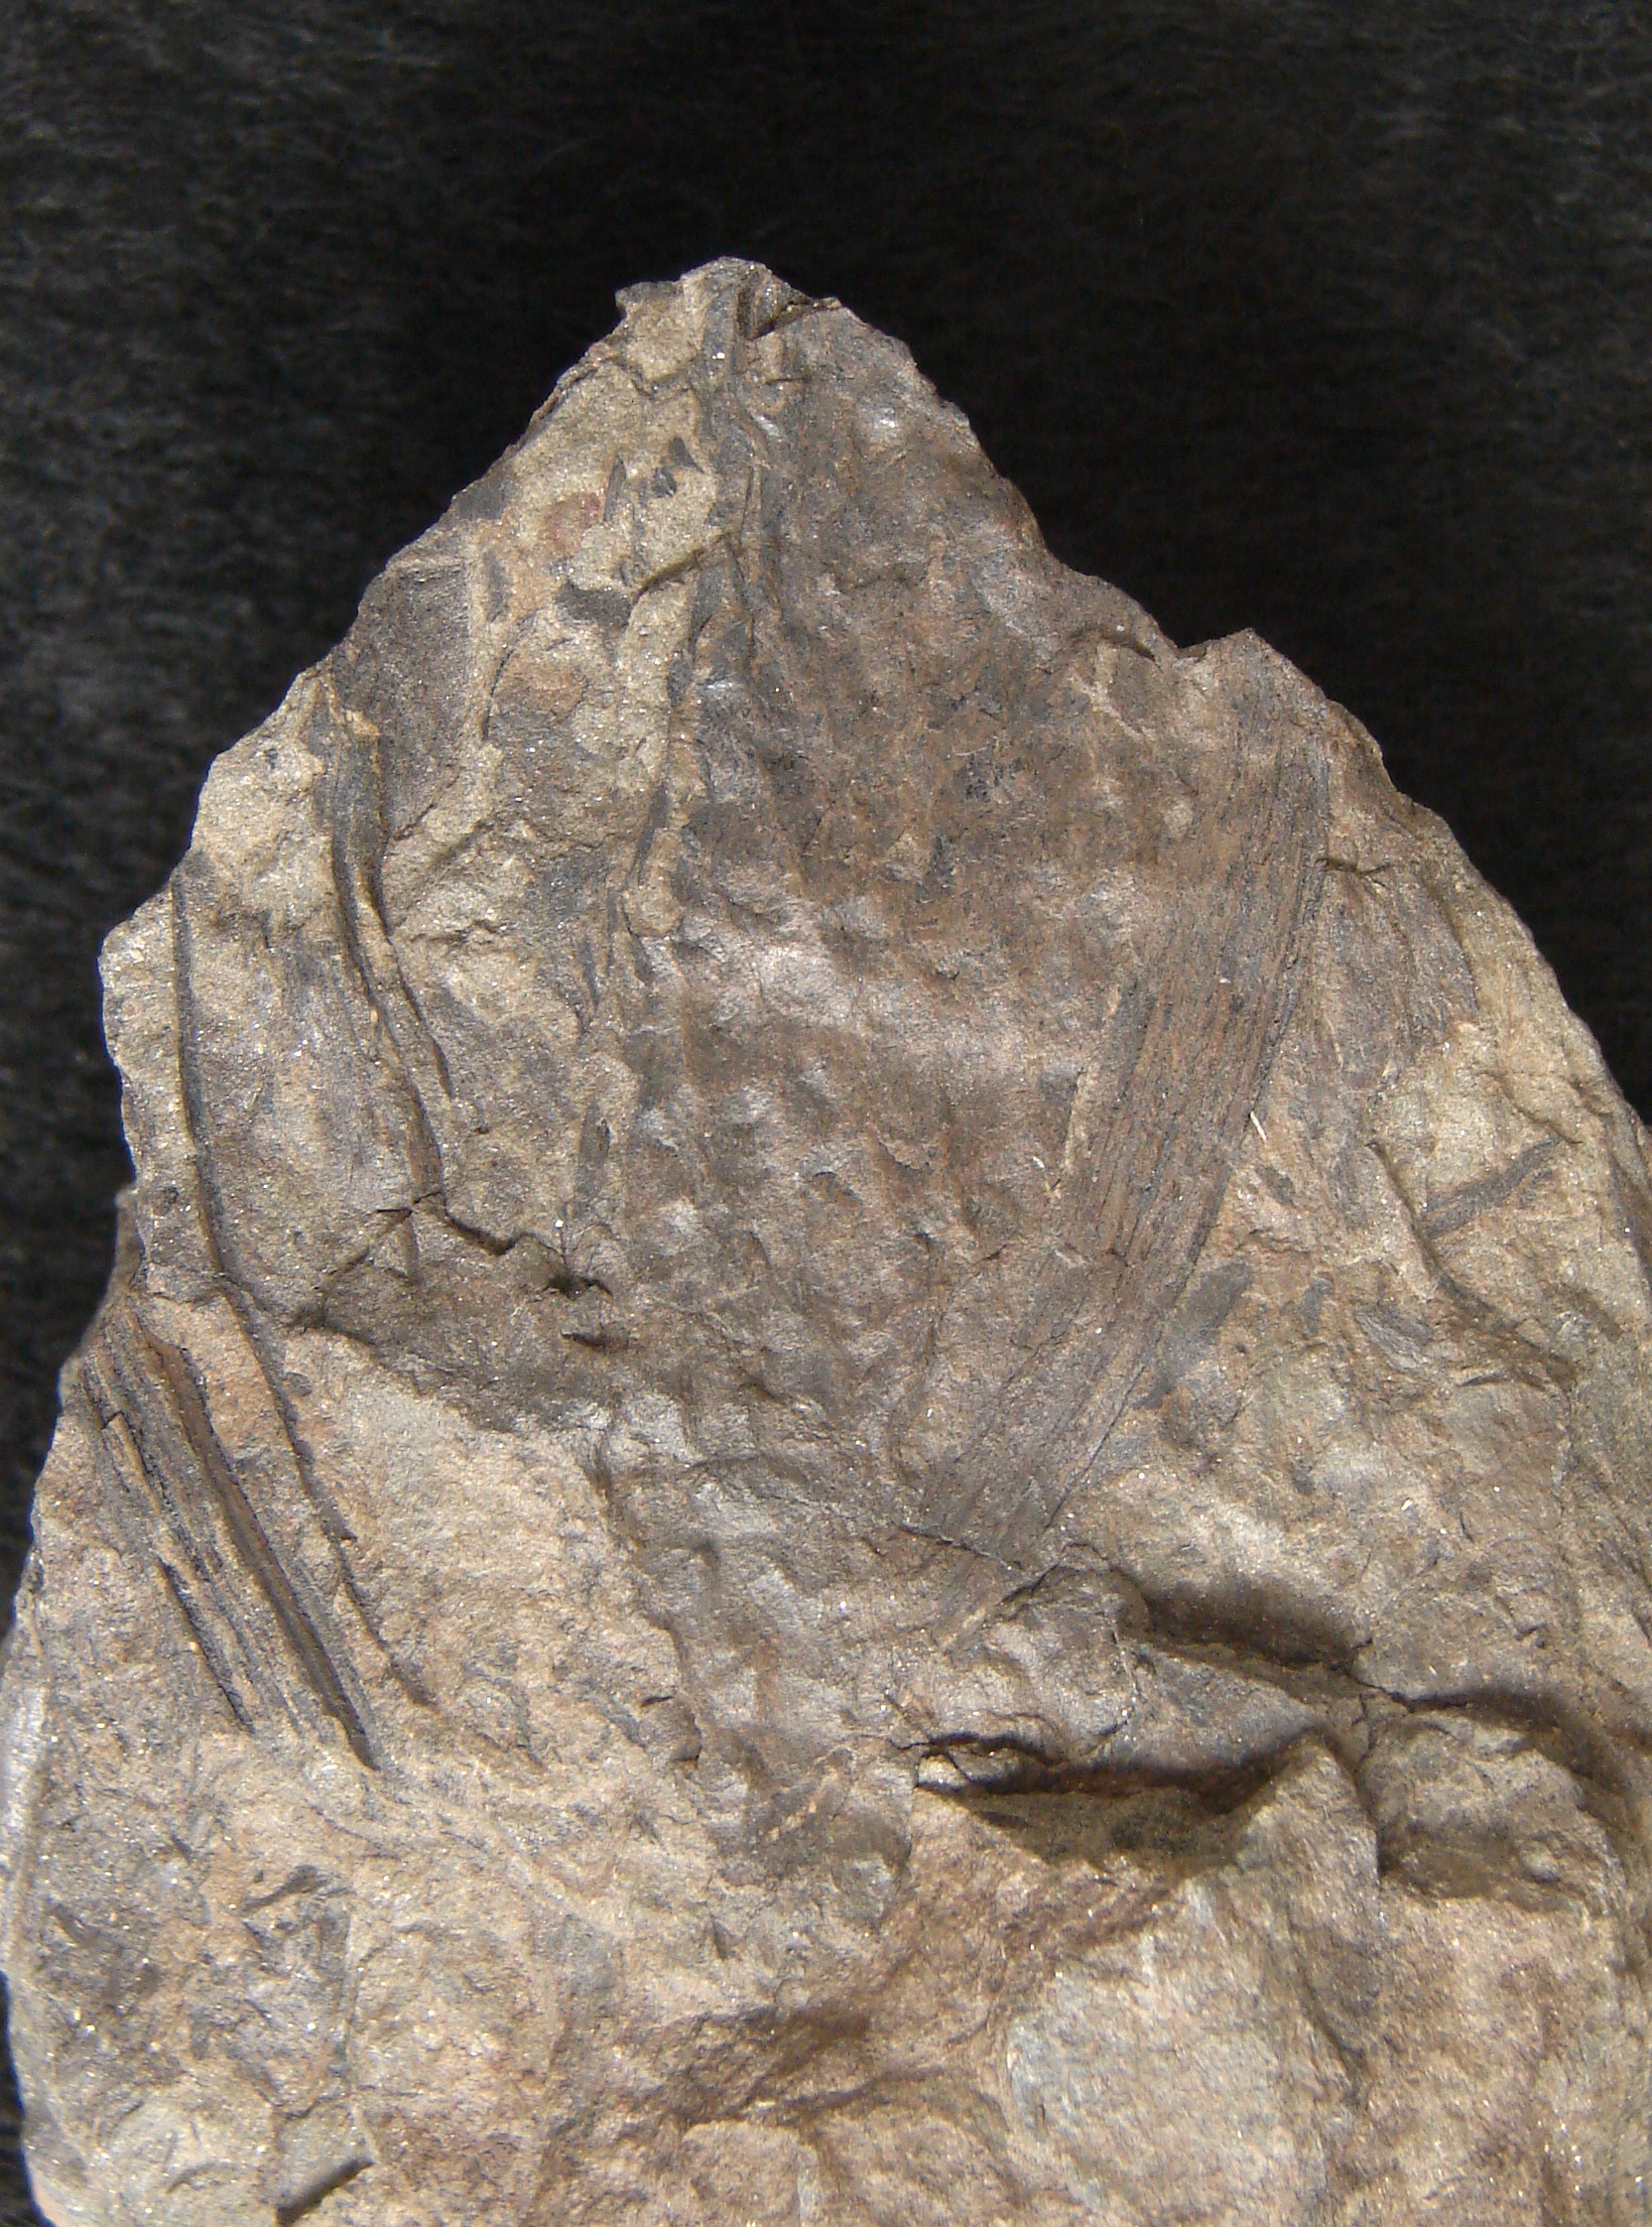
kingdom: Plantae
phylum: Tracheophyta
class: Lycopodiopsida
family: Drepanophycaceae
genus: Drepanophycus
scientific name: Drepanophycus spinaeformis
